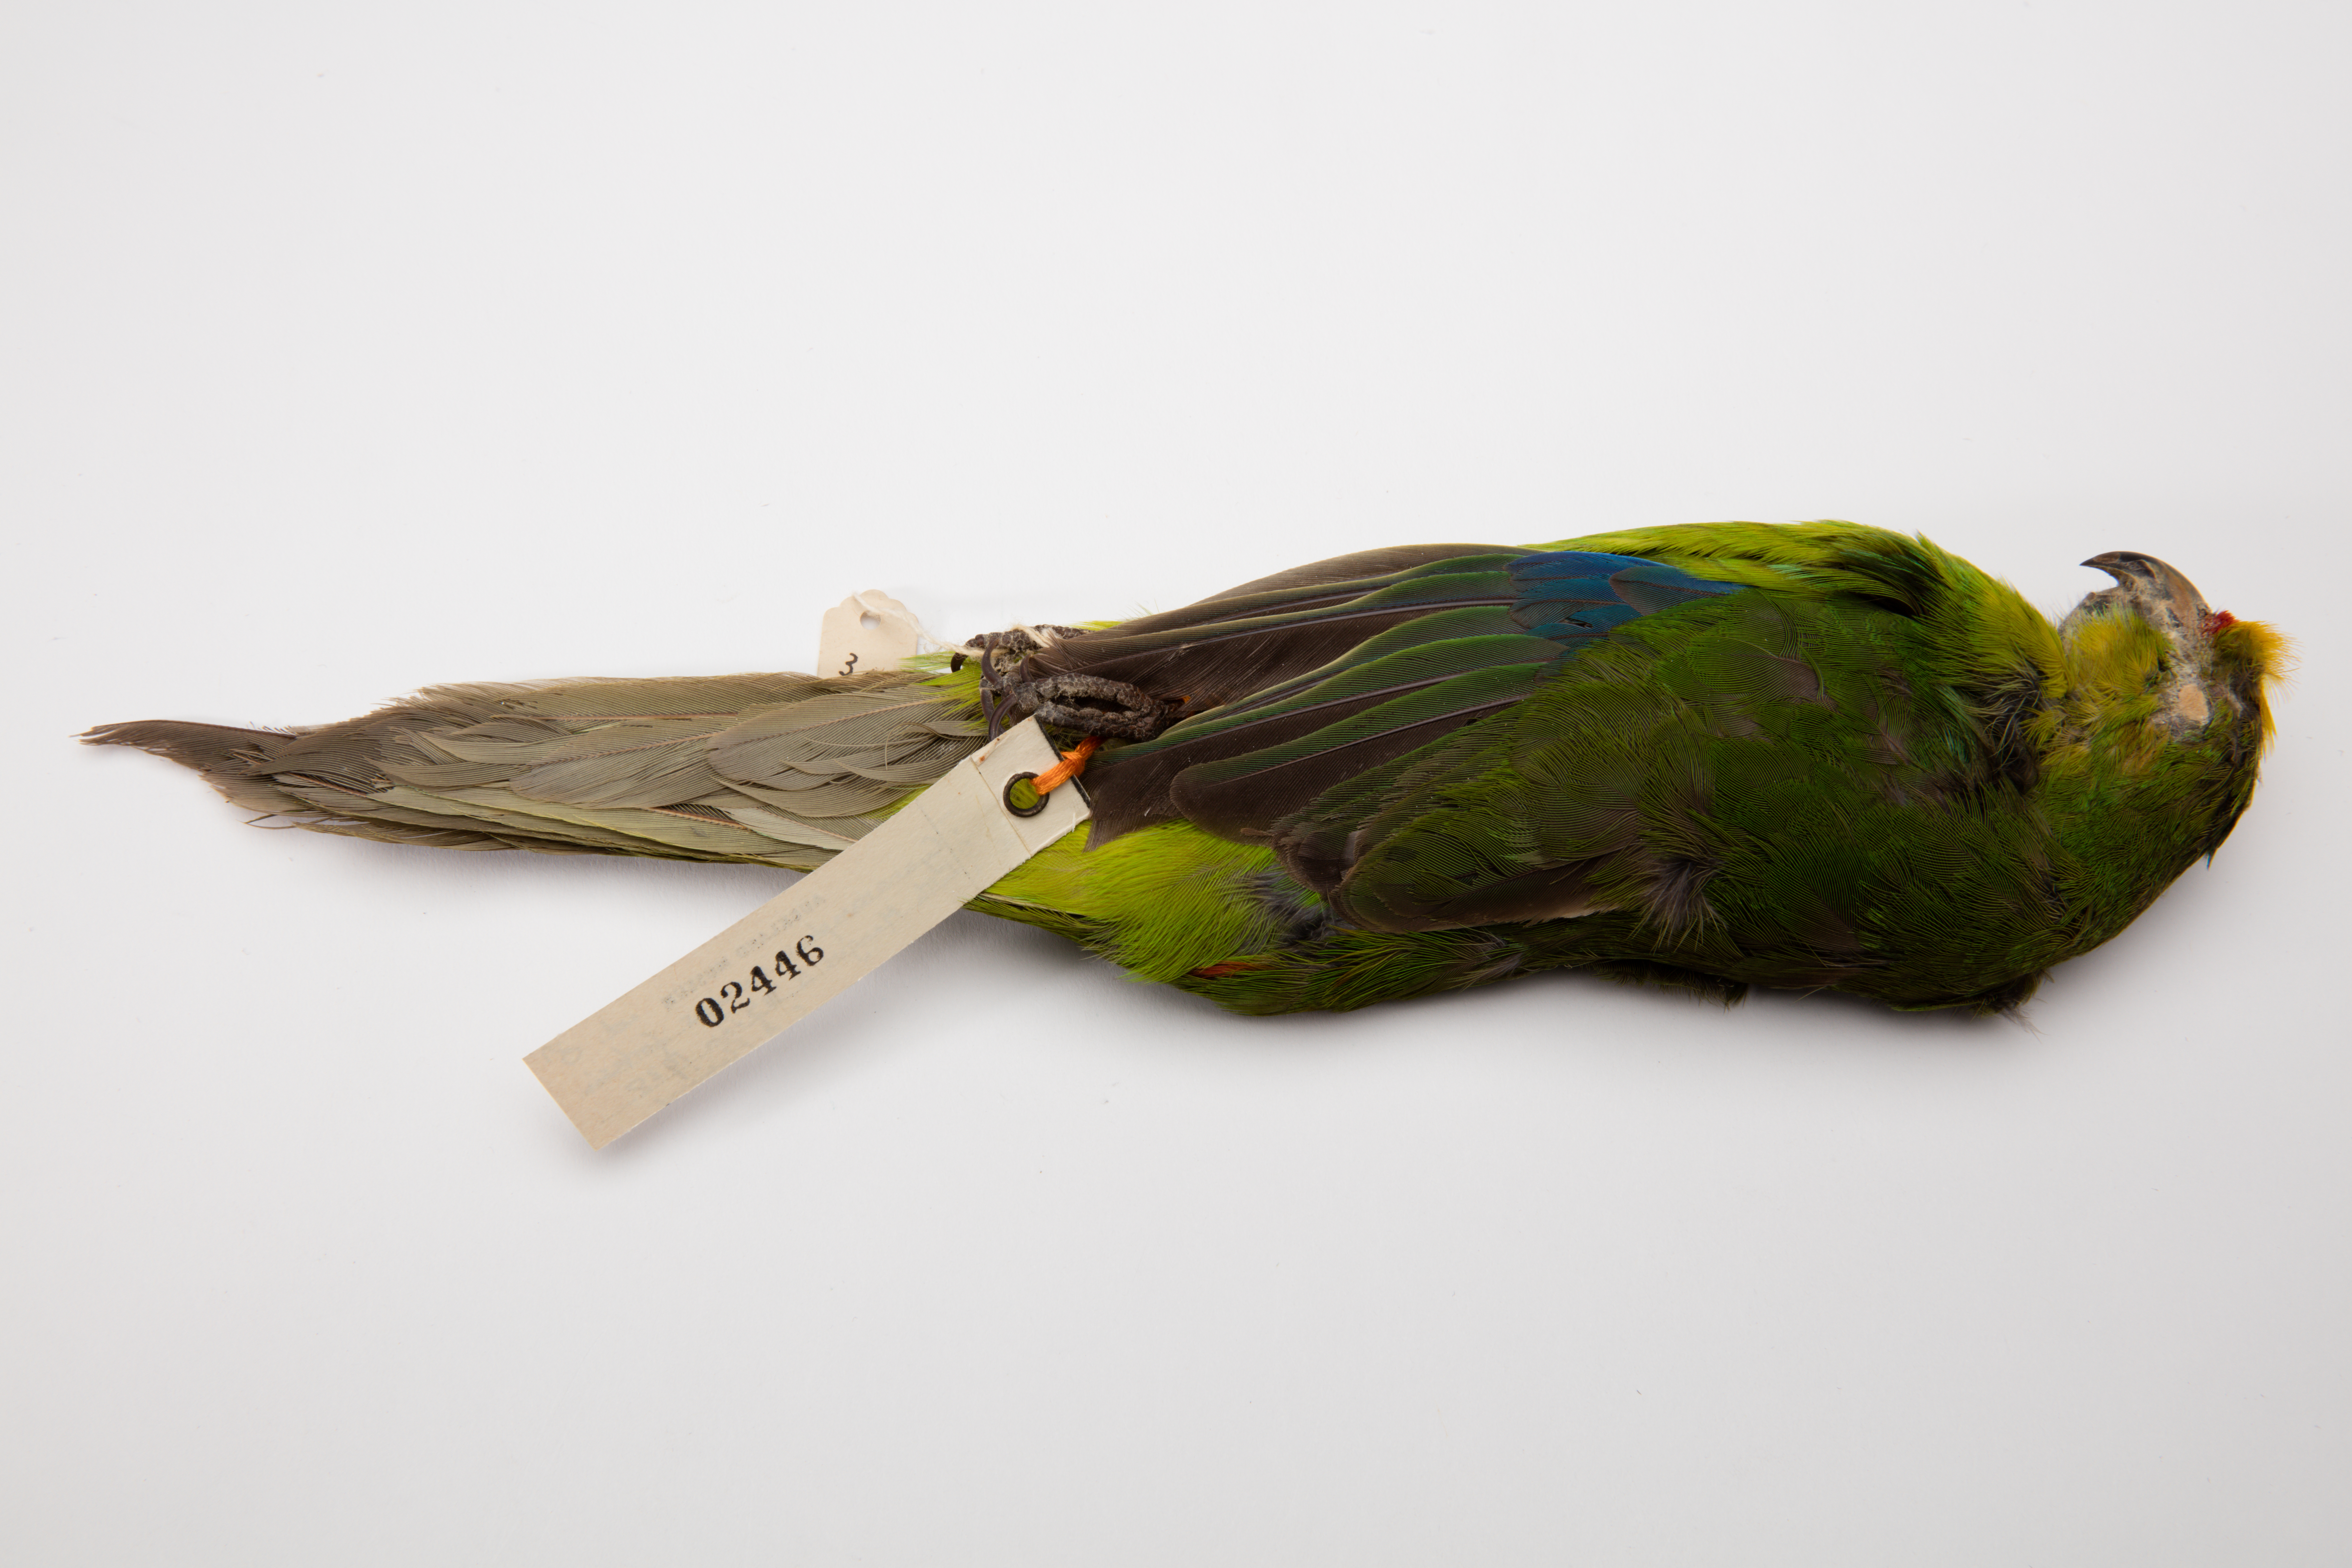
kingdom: Animalia
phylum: Chordata
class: Aves
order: Psittaciformes
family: Psittacidae
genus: Cyanoramphus
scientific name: Cyanoramphus forbesi
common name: Chatham parakeet
